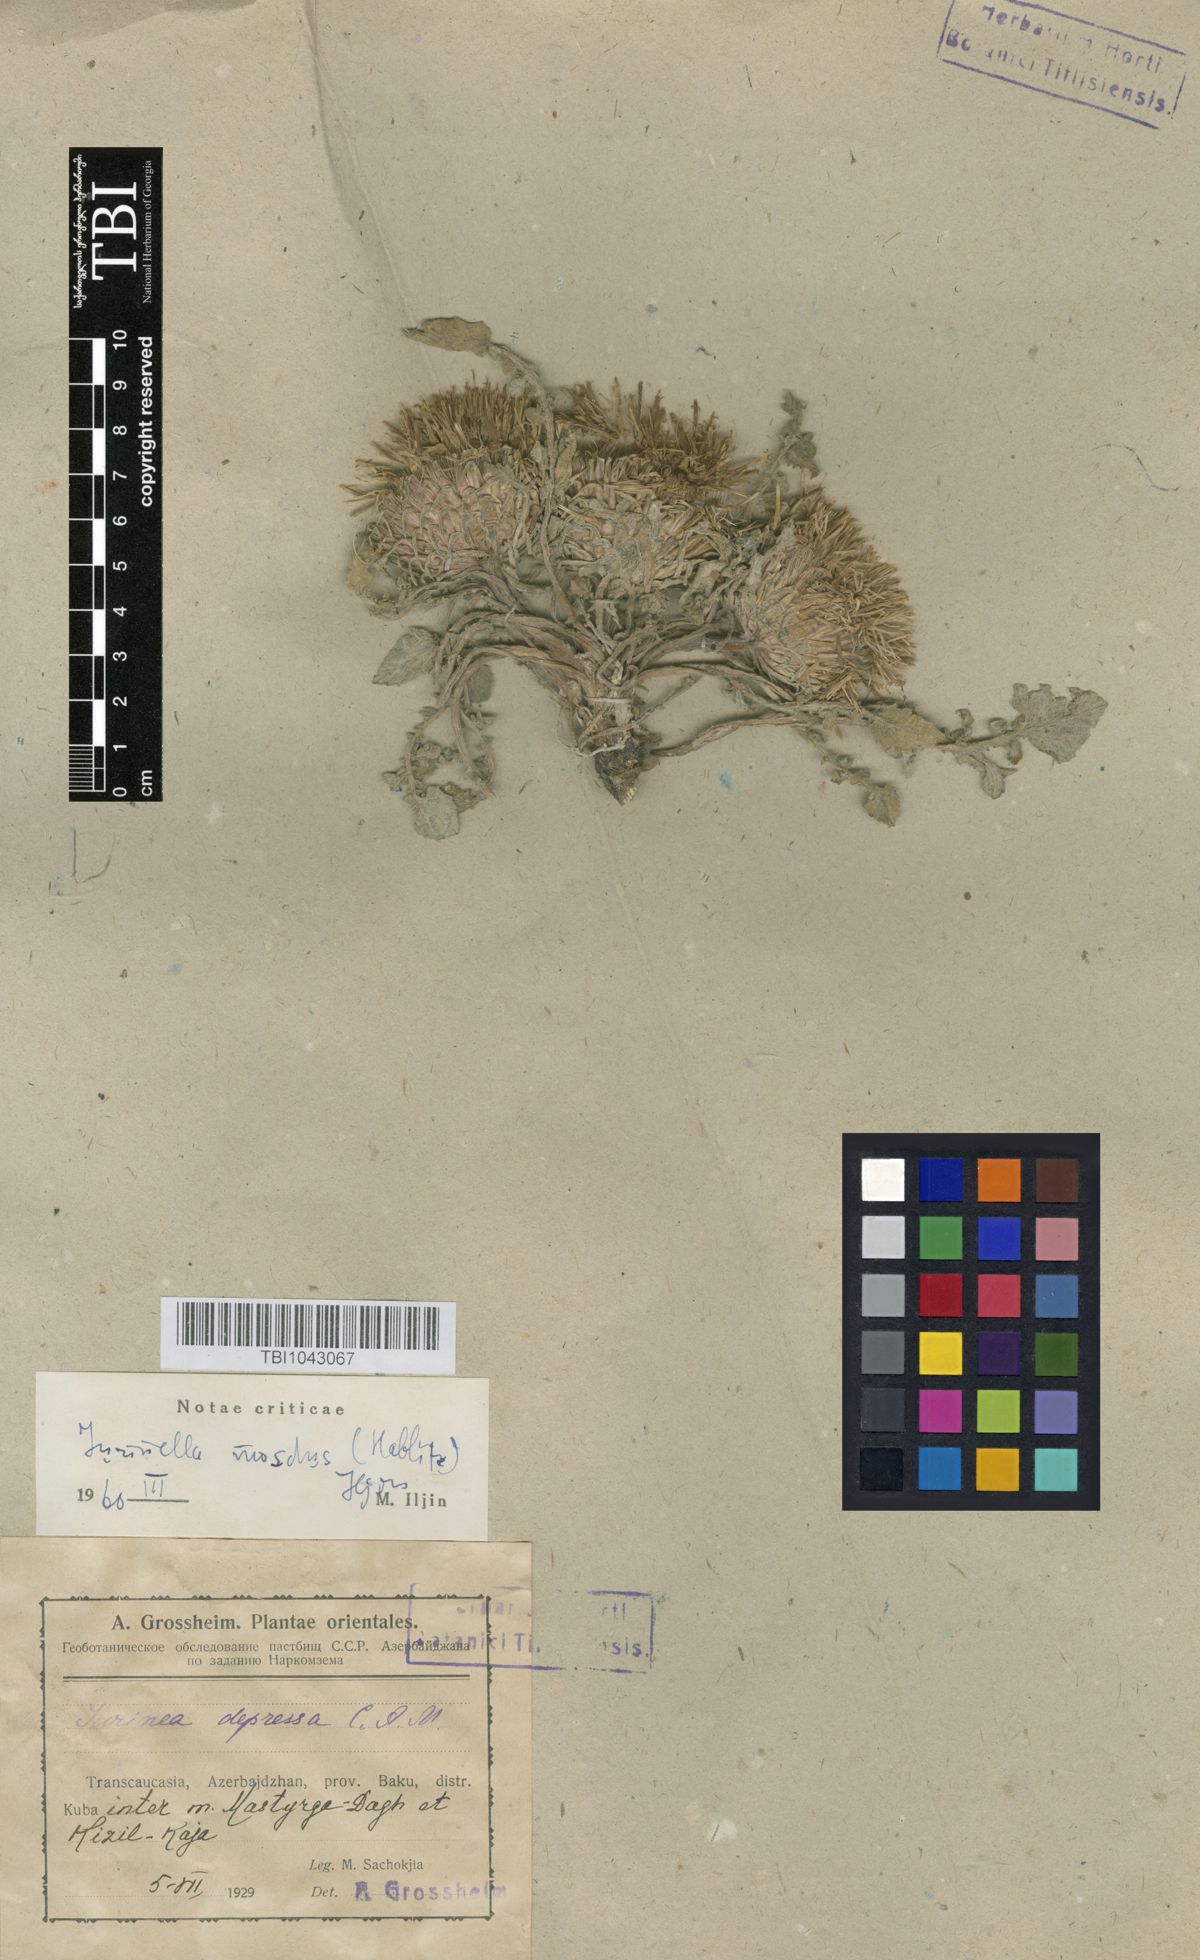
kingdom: Plantae
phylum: Tracheophyta
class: Magnoliopsida
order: Asterales
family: Asteraceae
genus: Jurinea
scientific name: Jurinea moschus
